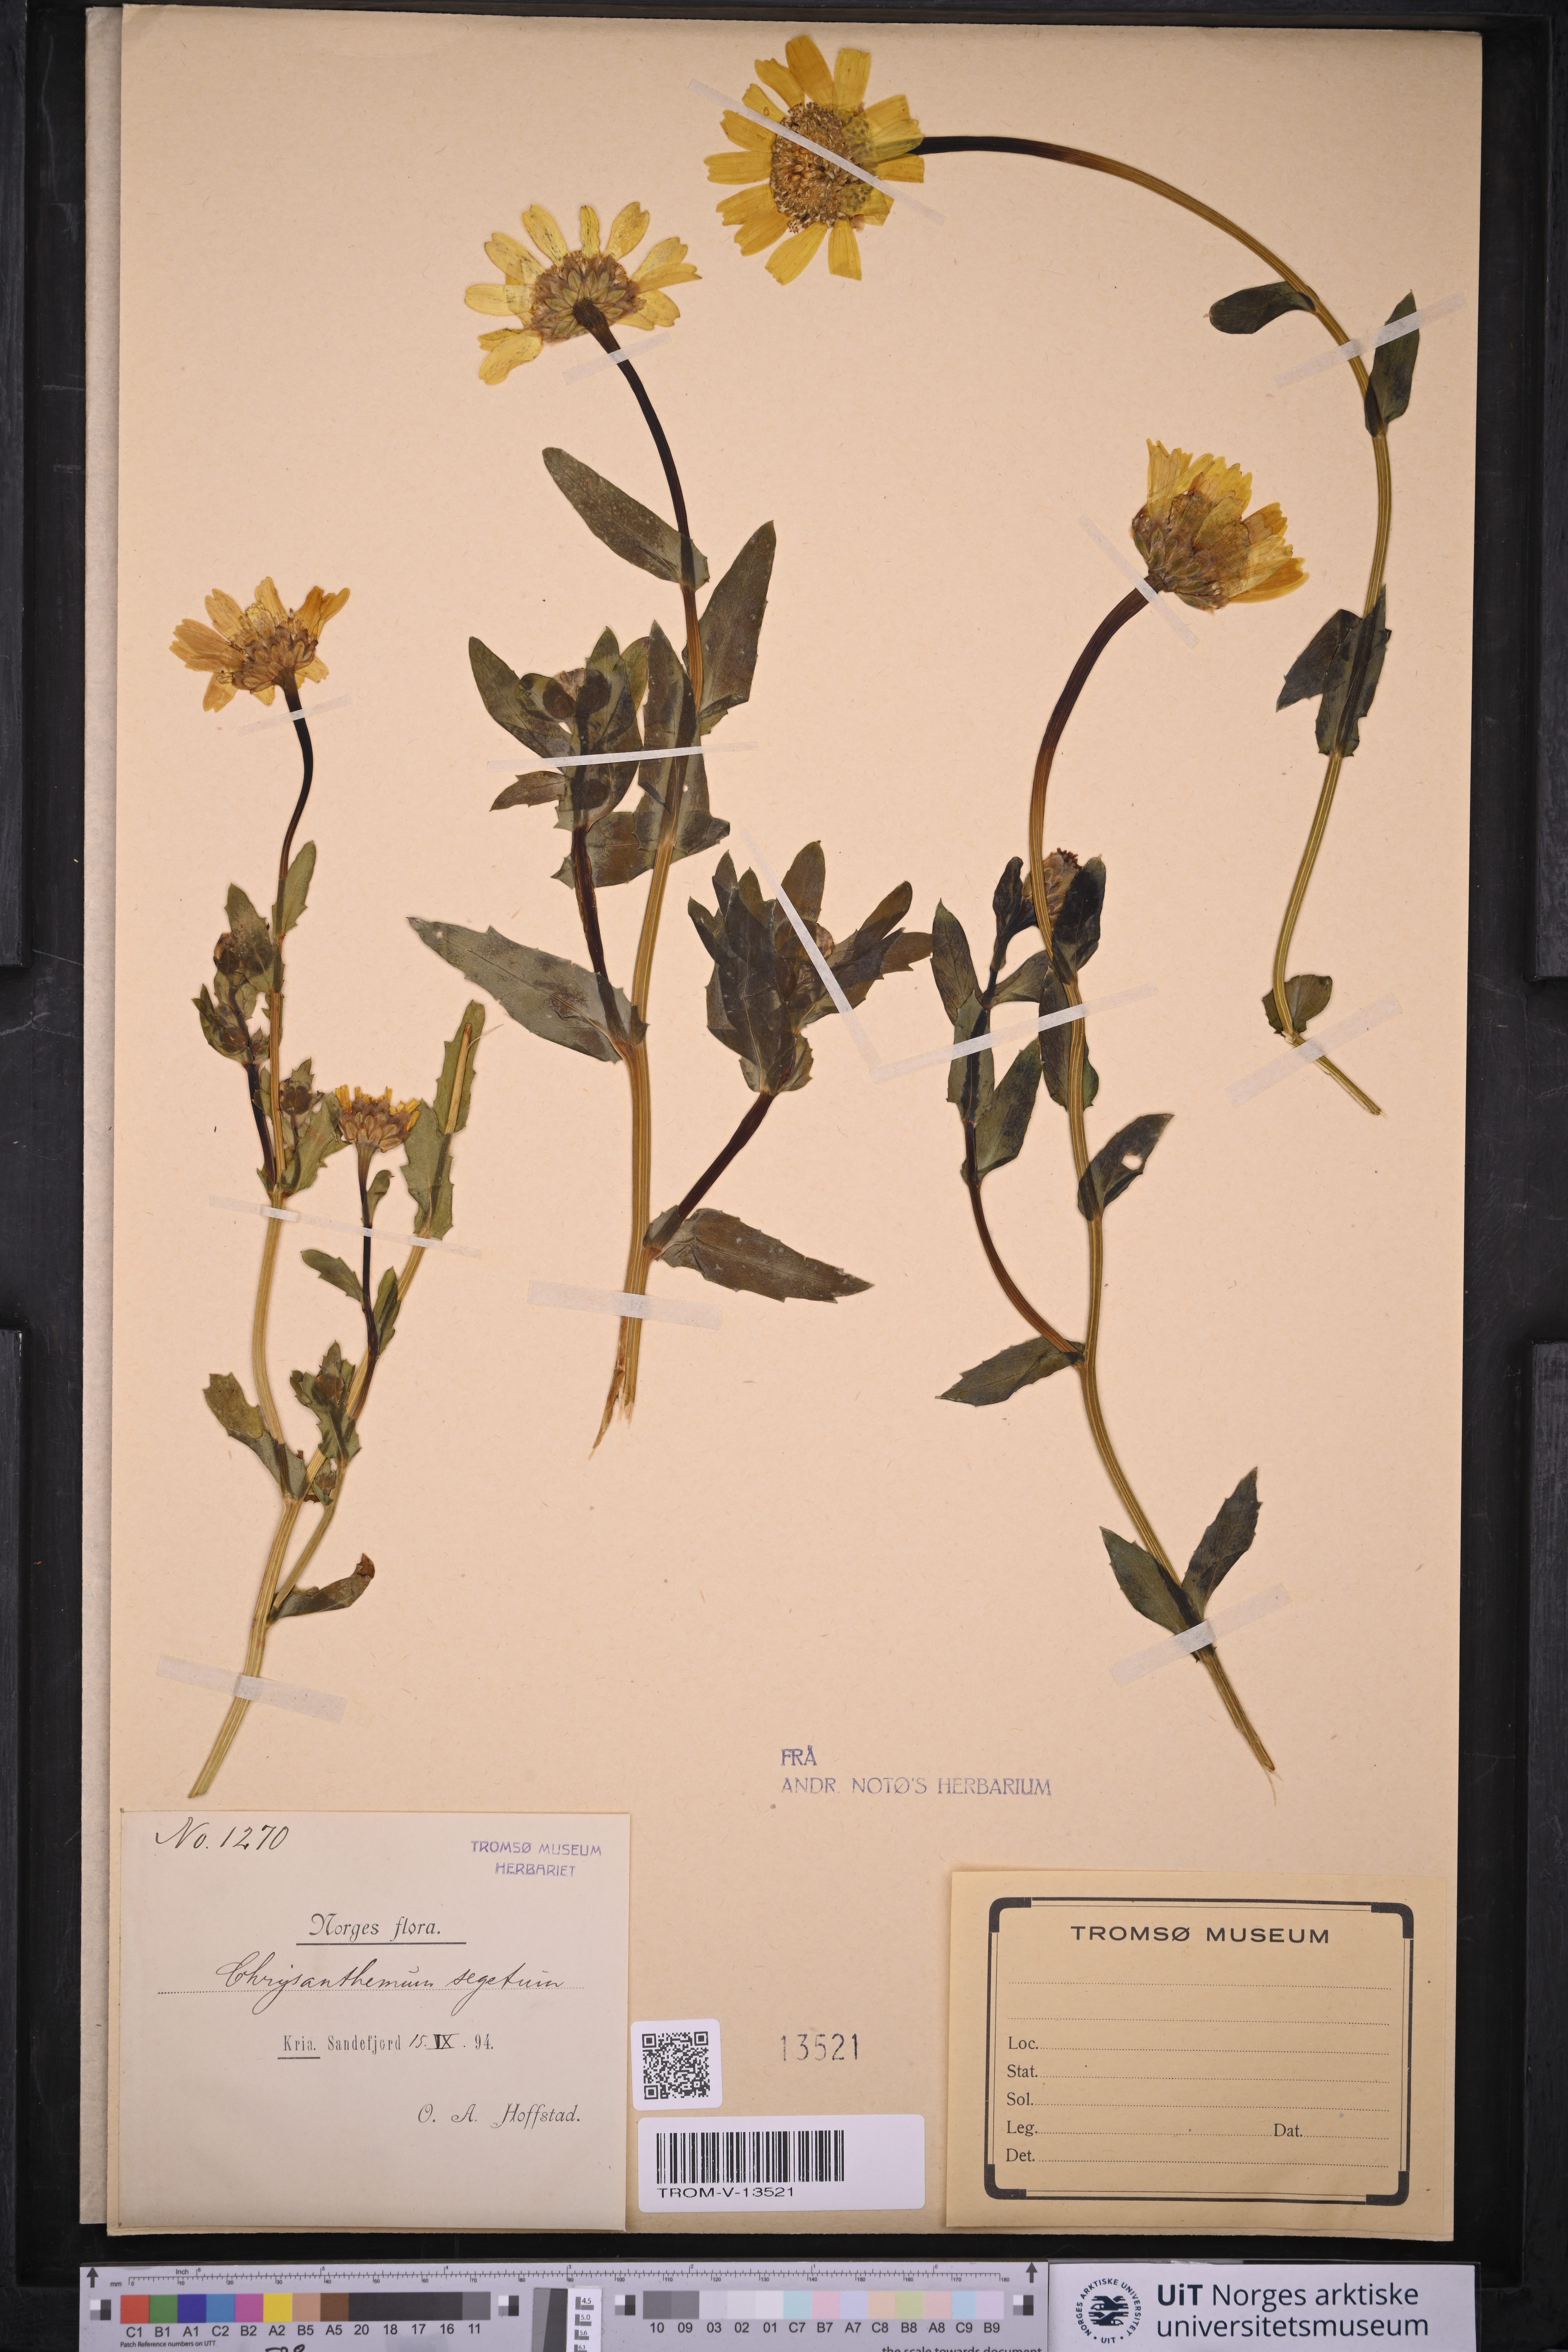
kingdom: Plantae
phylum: Tracheophyta
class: Magnoliopsida
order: Asterales
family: Asteraceae
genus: Glebionis
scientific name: Glebionis segetum
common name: Corndaisy
